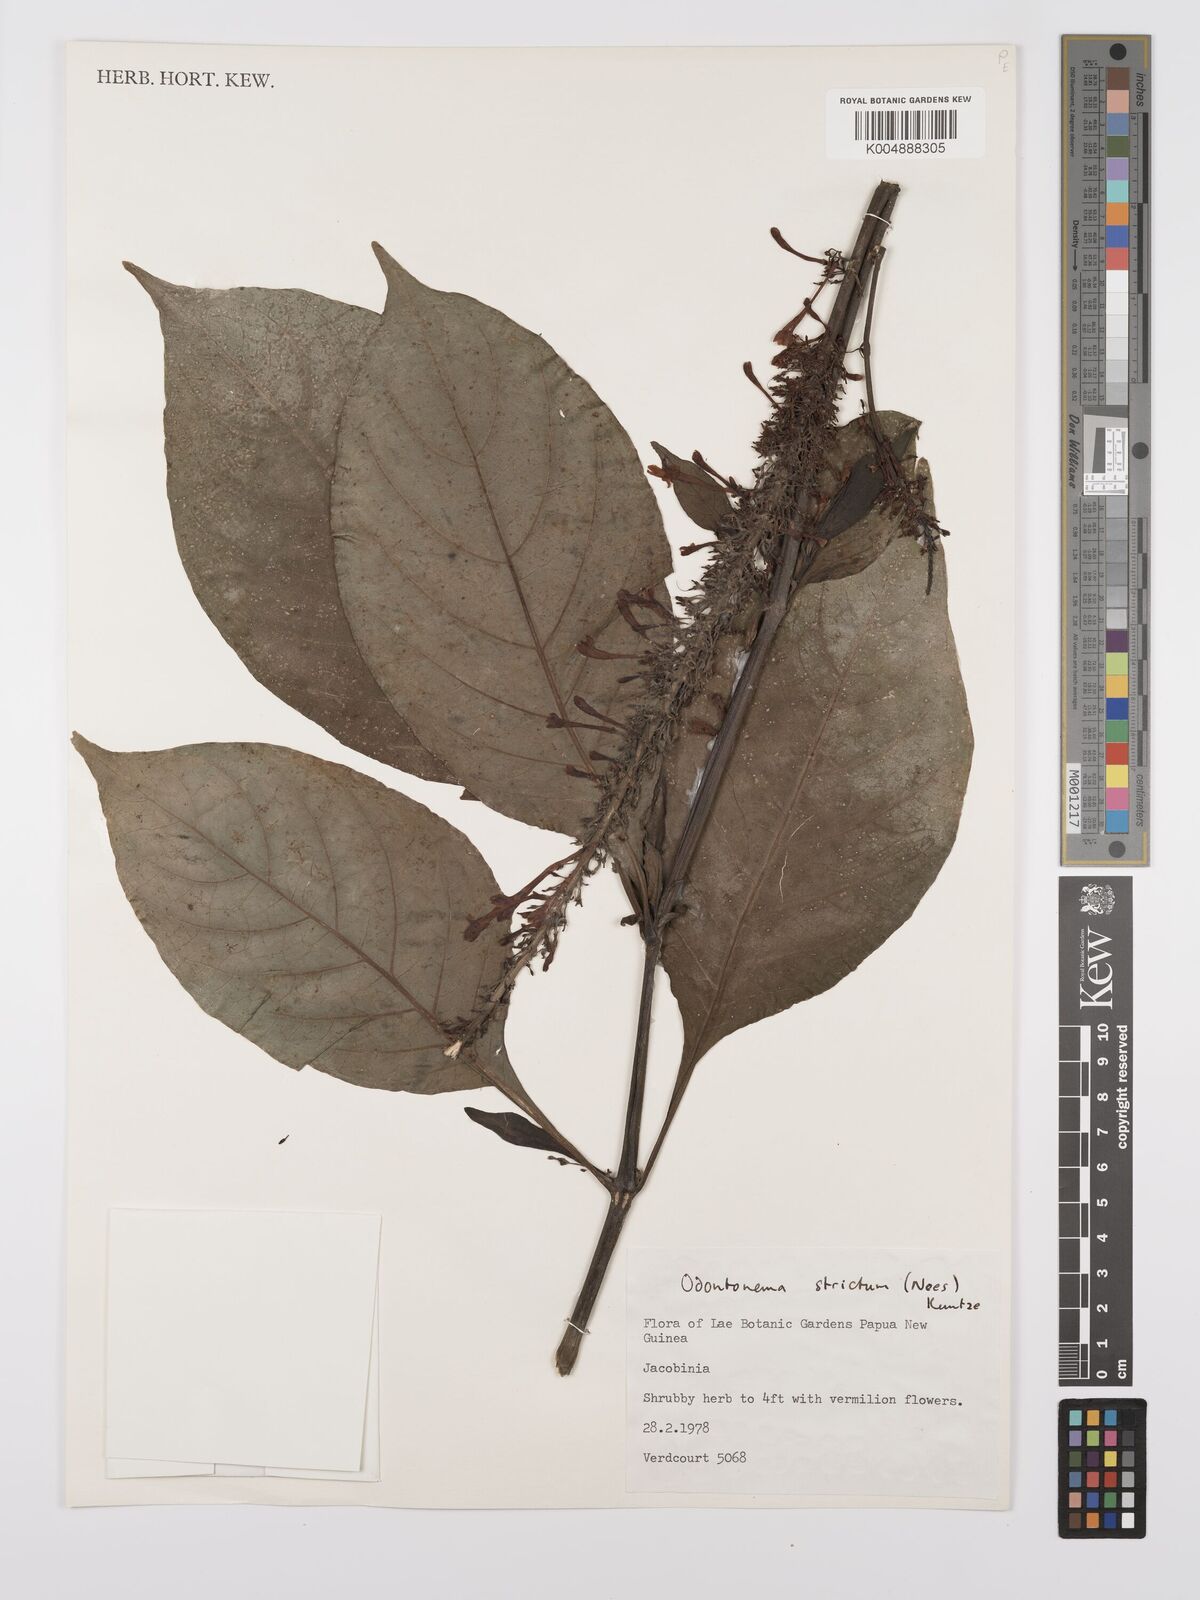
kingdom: Plantae
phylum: Tracheophyta
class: Magnoliopsida
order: Lamiales
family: Acanthaceae
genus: Odontonema
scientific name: Odontonema cuspidatum
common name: Mottled toothedthread
